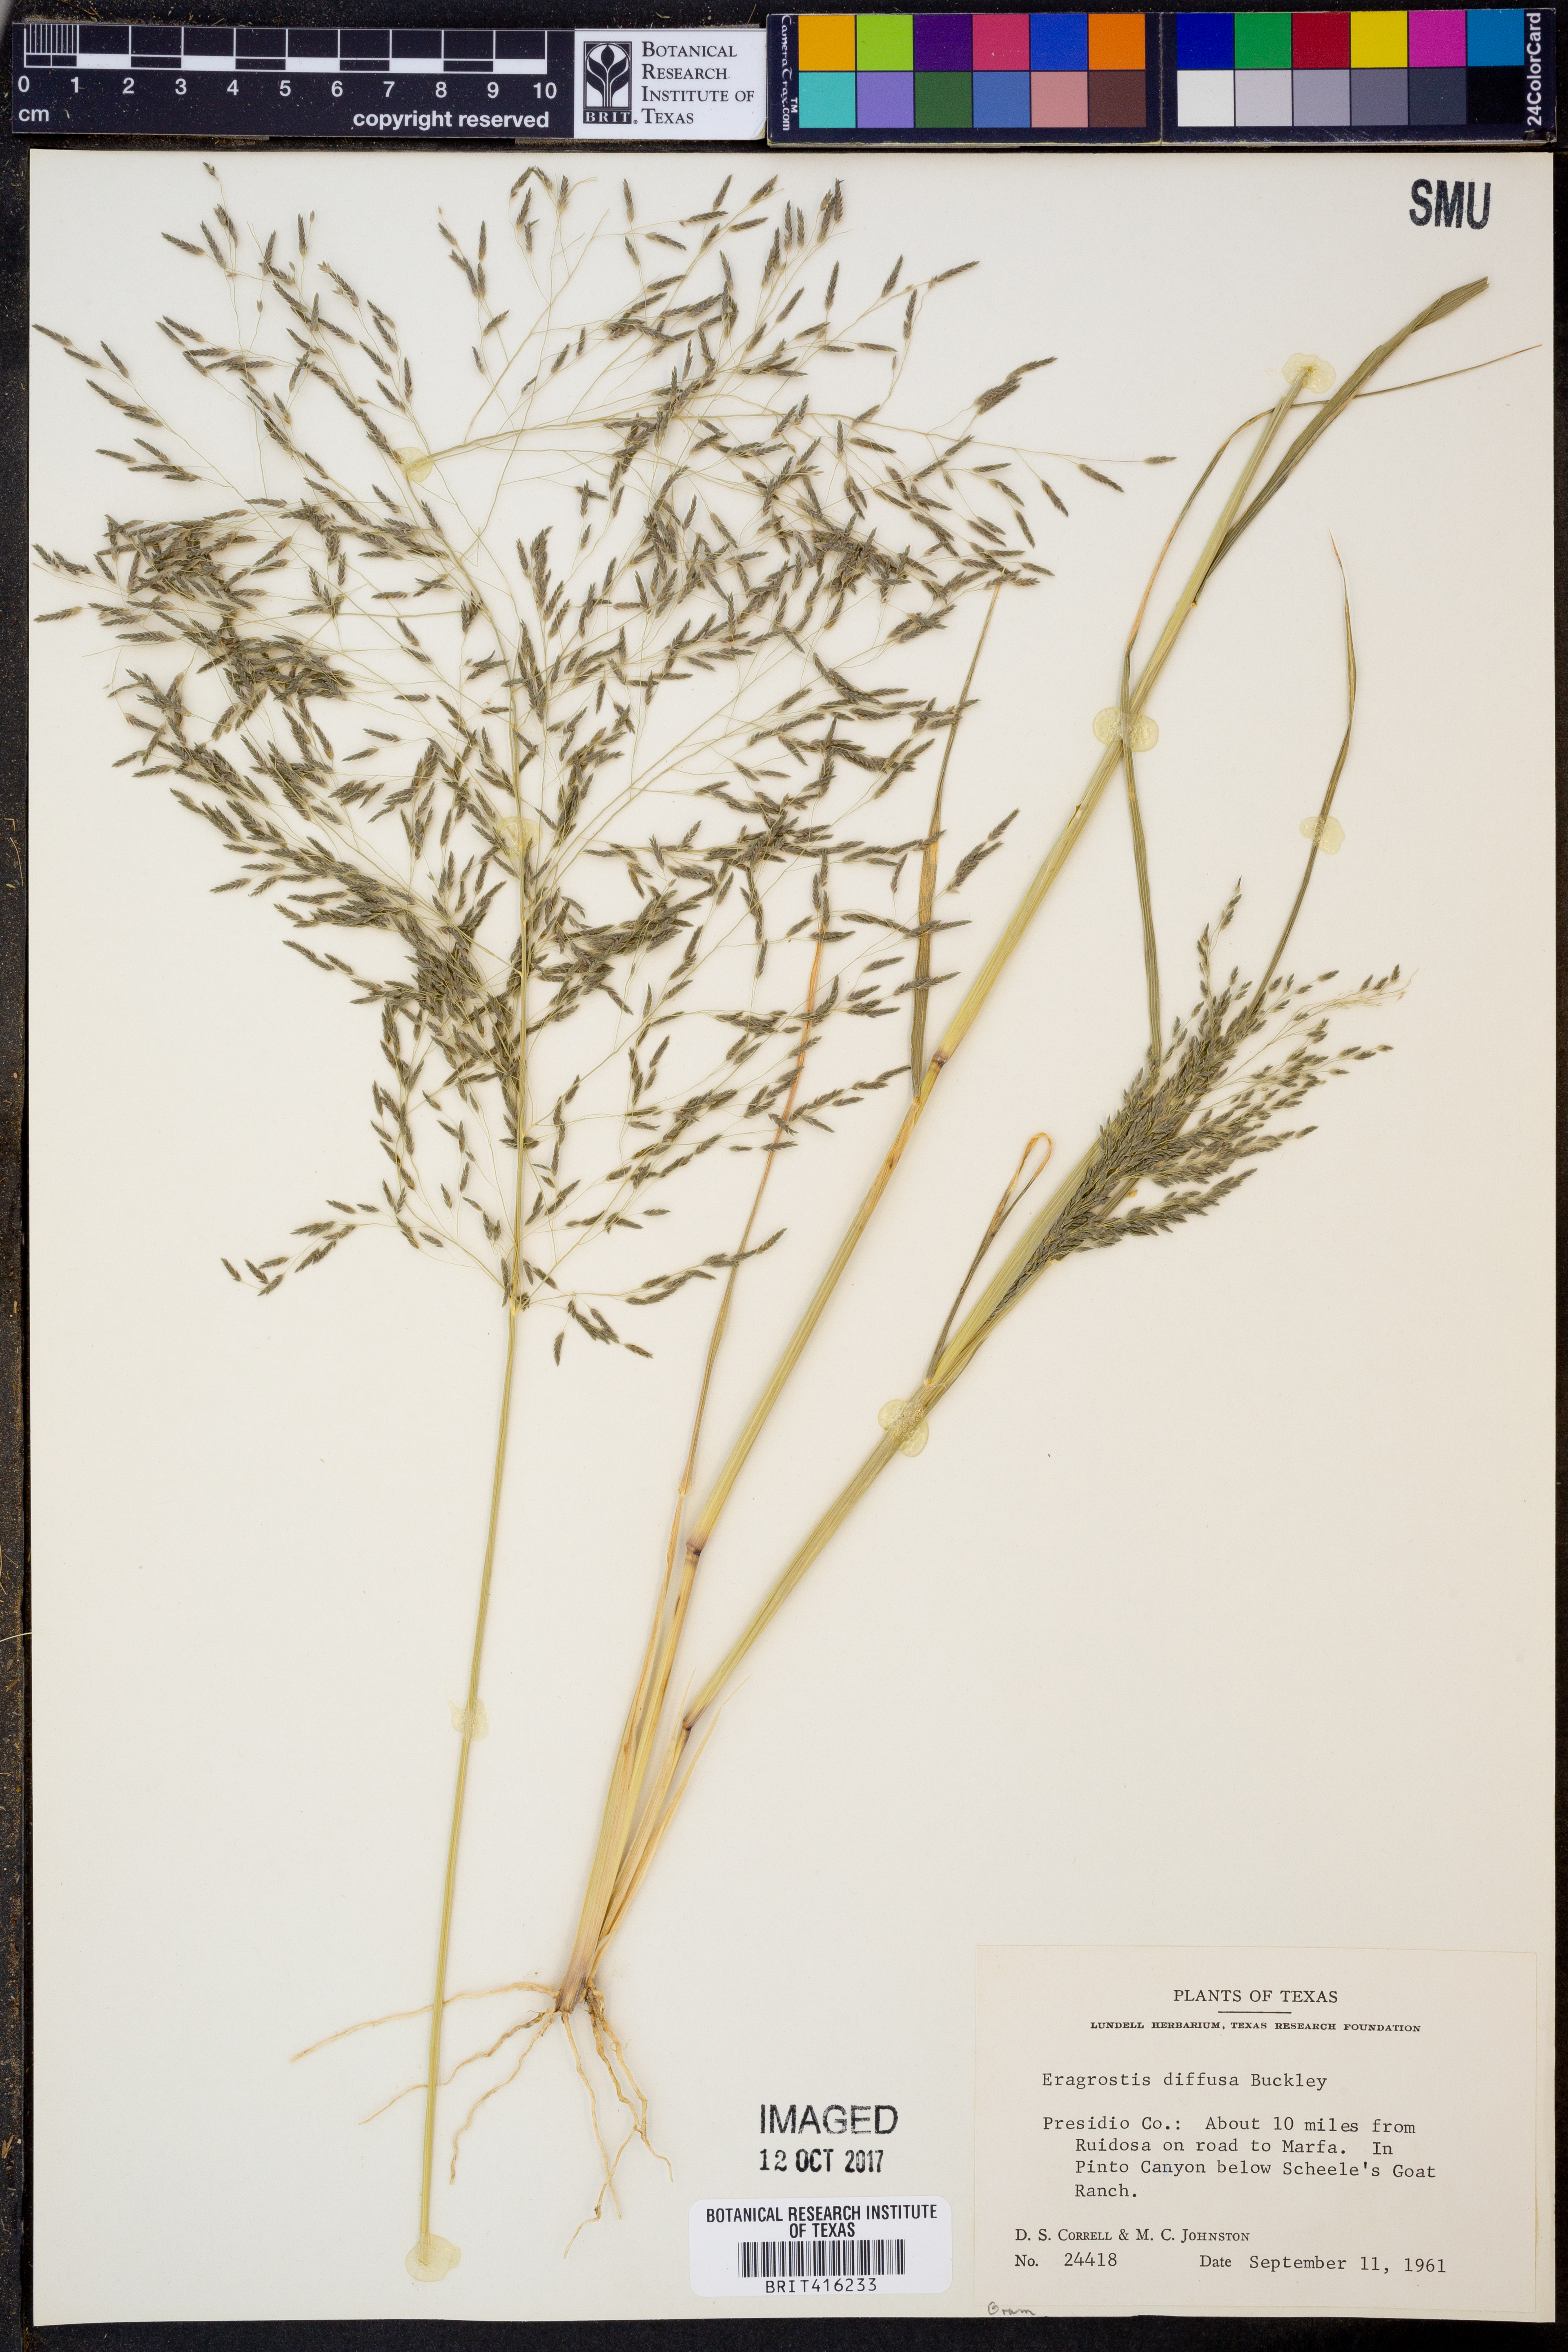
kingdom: Plantae
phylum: Tracheophyta
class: Liliopsida
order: Poales
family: Poaceae
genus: Eragrostis
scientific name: Eragrostis pectinacea
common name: Tufted lovegrass
